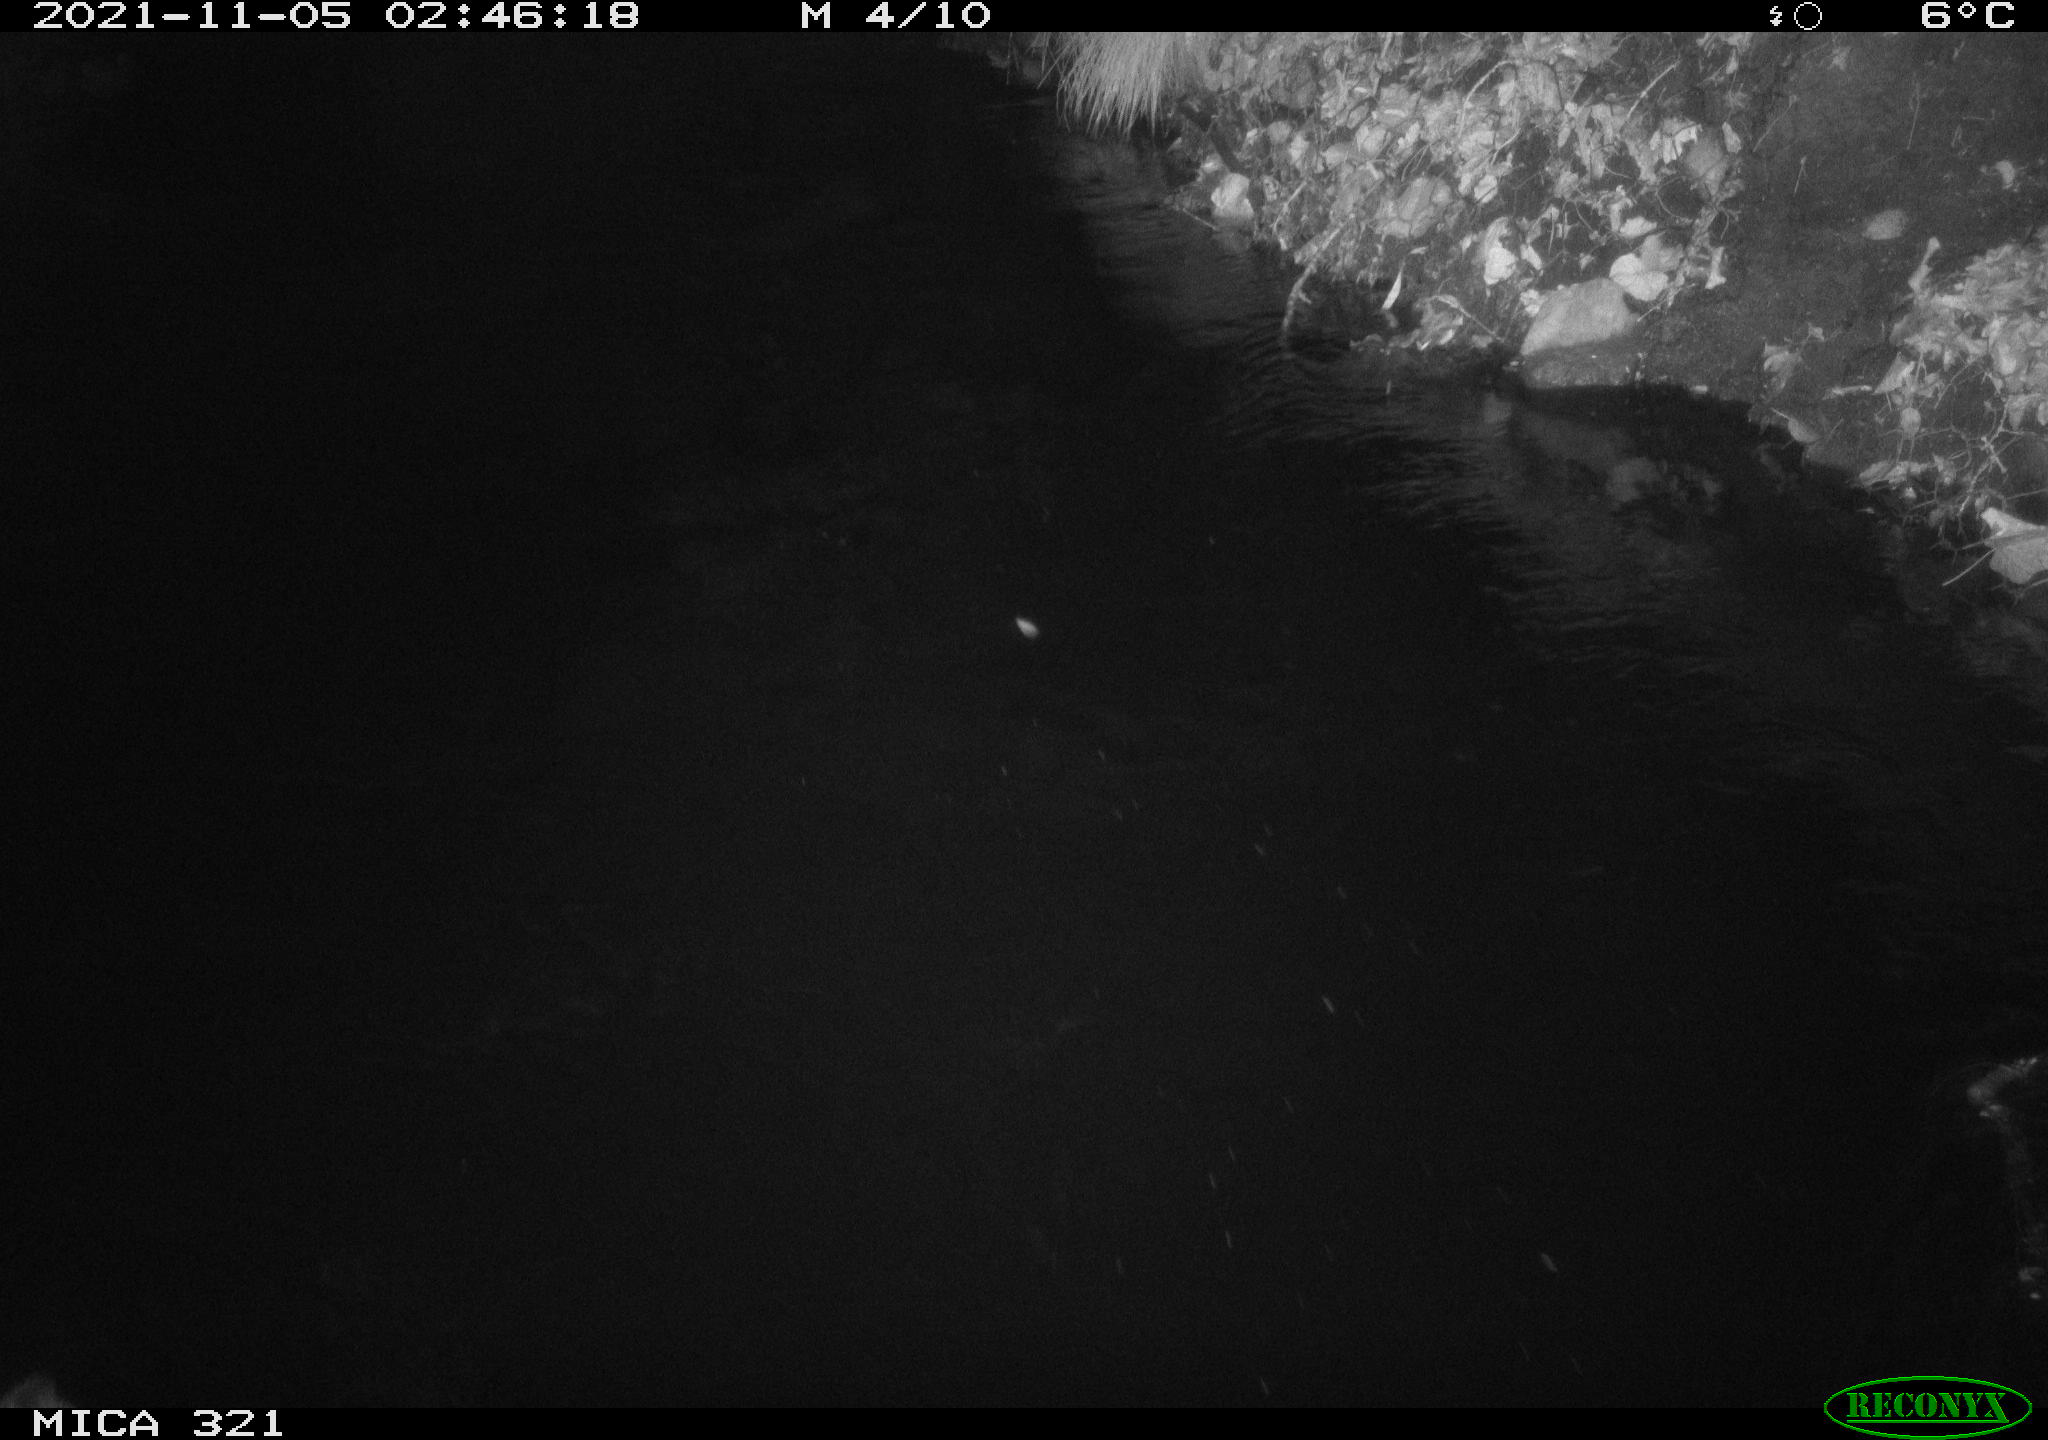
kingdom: Animalia
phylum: Chordata
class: Aves
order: Anseriformes
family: Anatidae
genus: Anas
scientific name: Anas platyrhynchos
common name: Mallard
